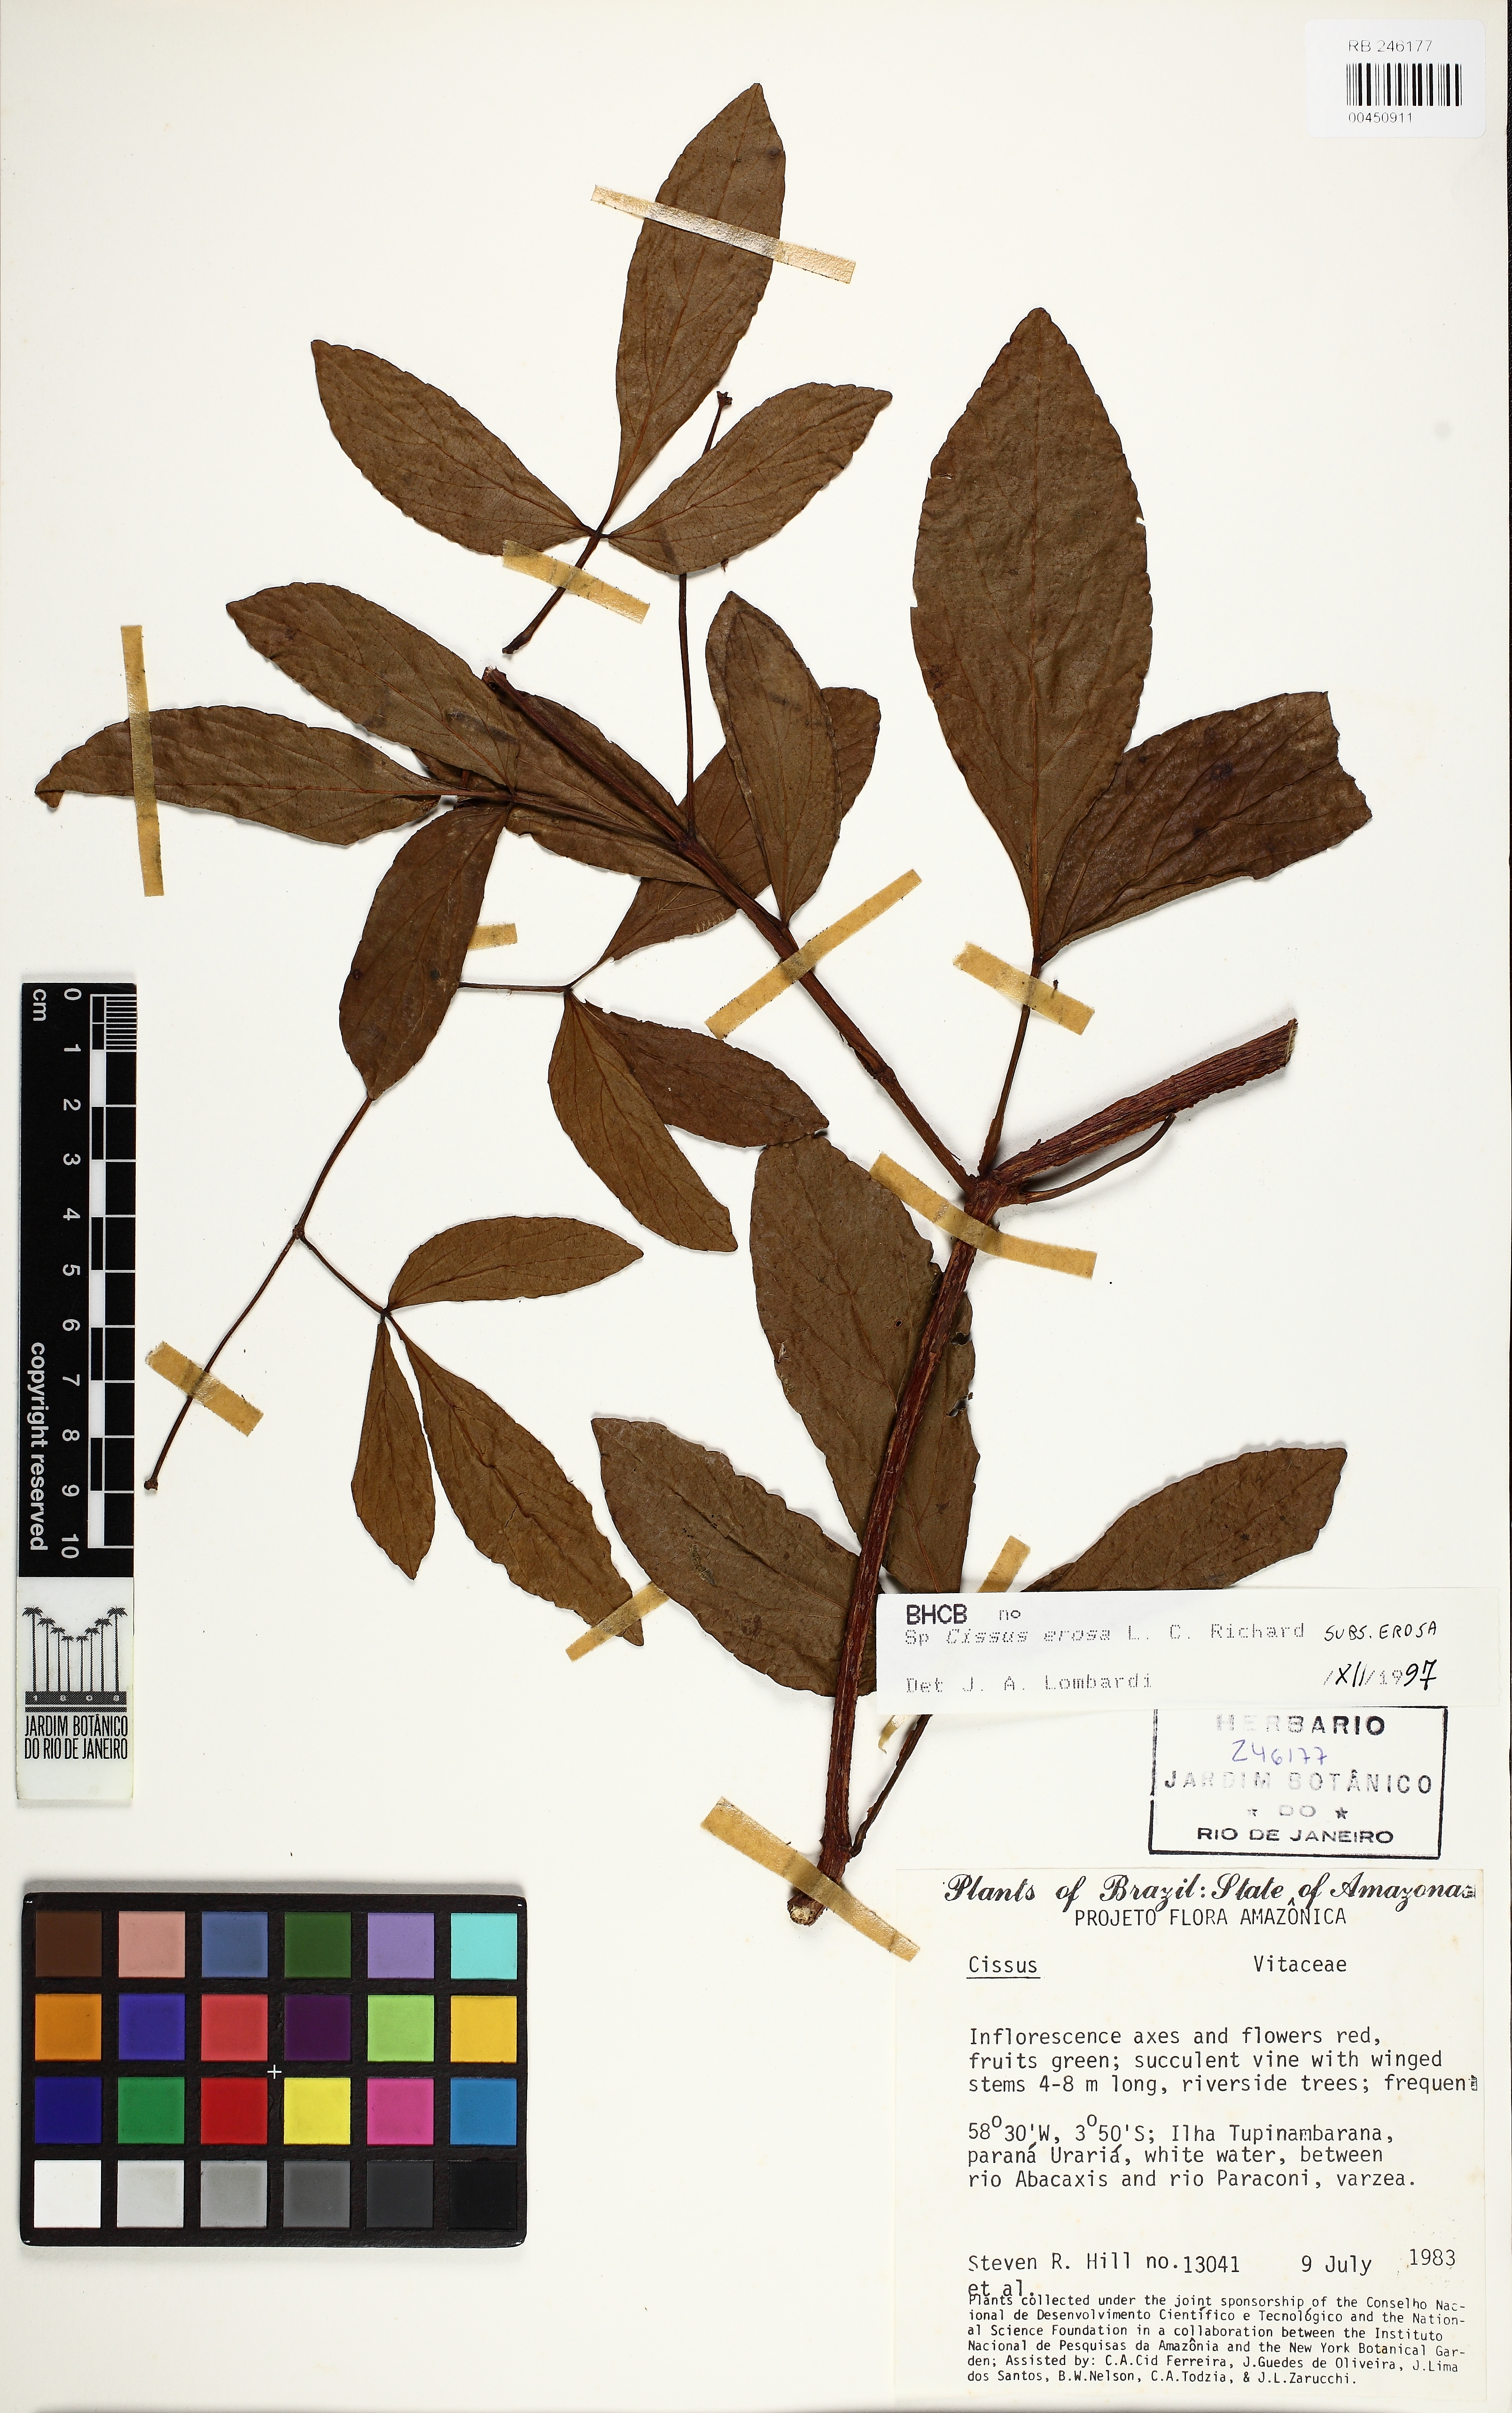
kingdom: Plantae
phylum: Tracheophyta
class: Magnoliopsida
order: Vitales
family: Vitaceae
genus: Cissus
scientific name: Cissus erosa
